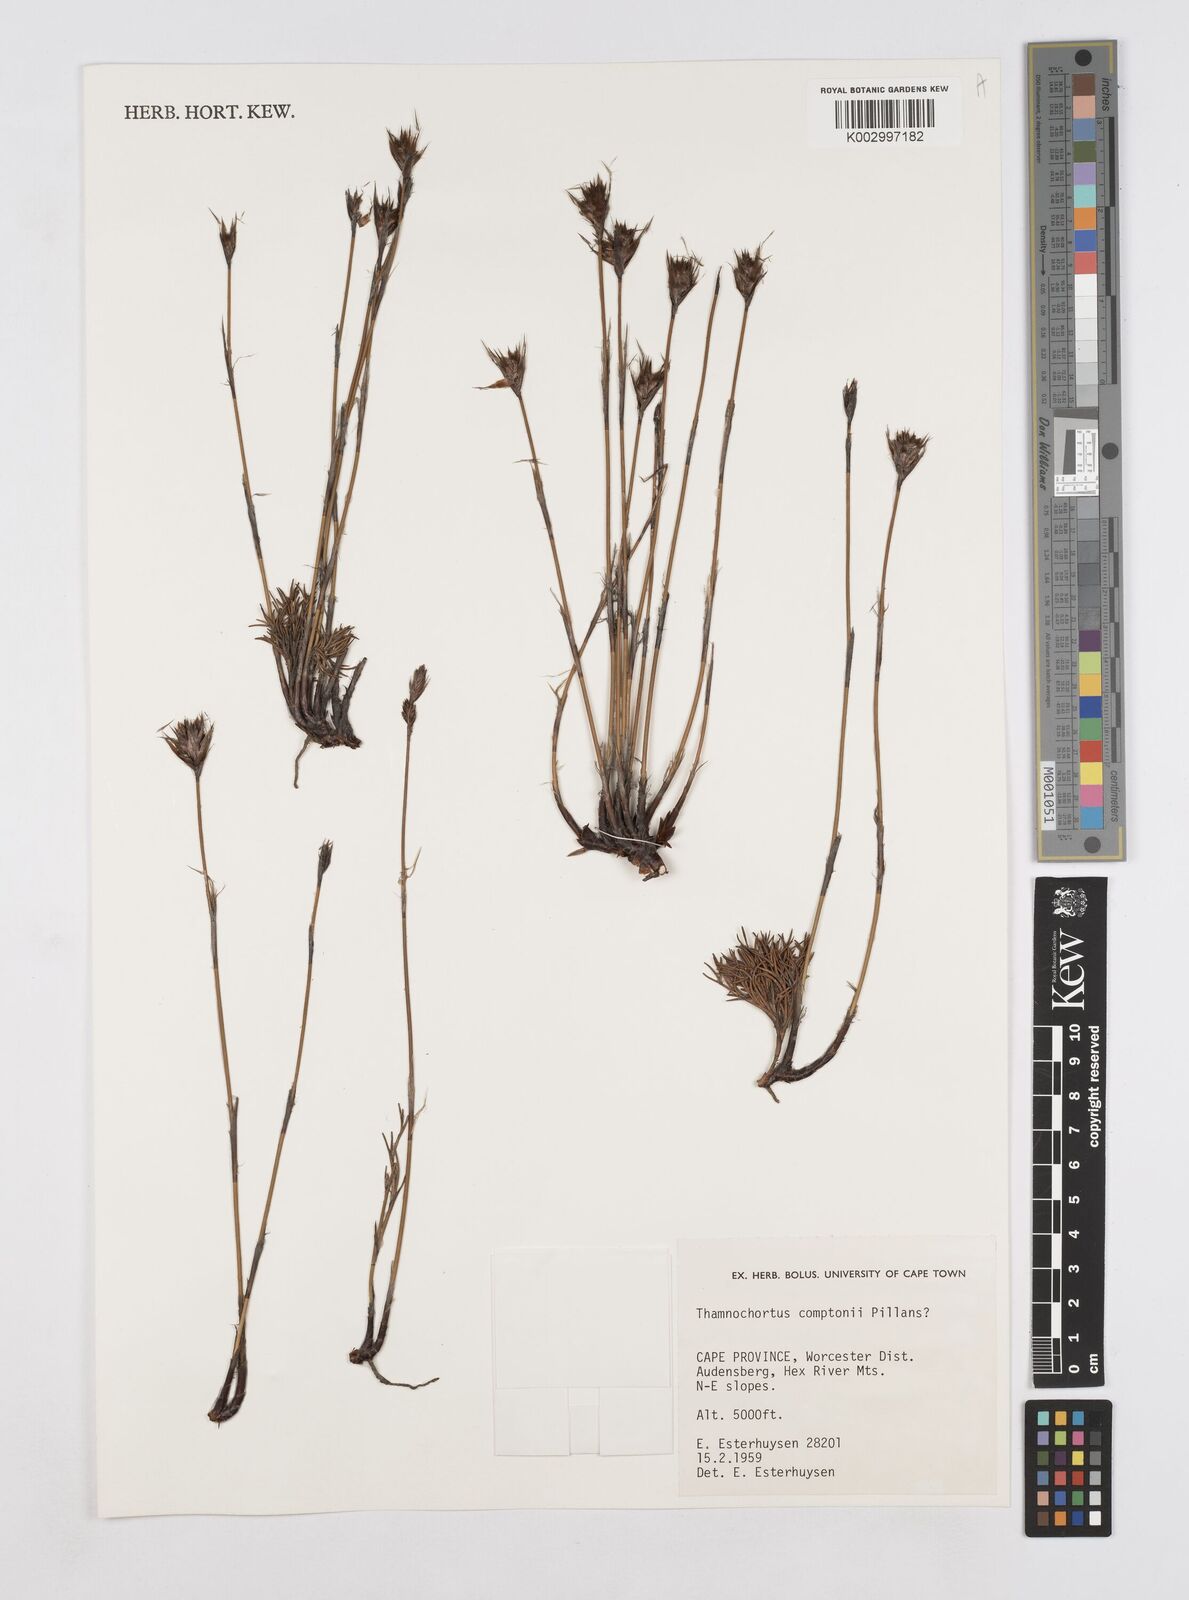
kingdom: Plantae
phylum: Tracheophyta
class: Liliopsida
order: Poales
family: Restionaceae
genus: Thamnochortus
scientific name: Thamnochortus platypteris
